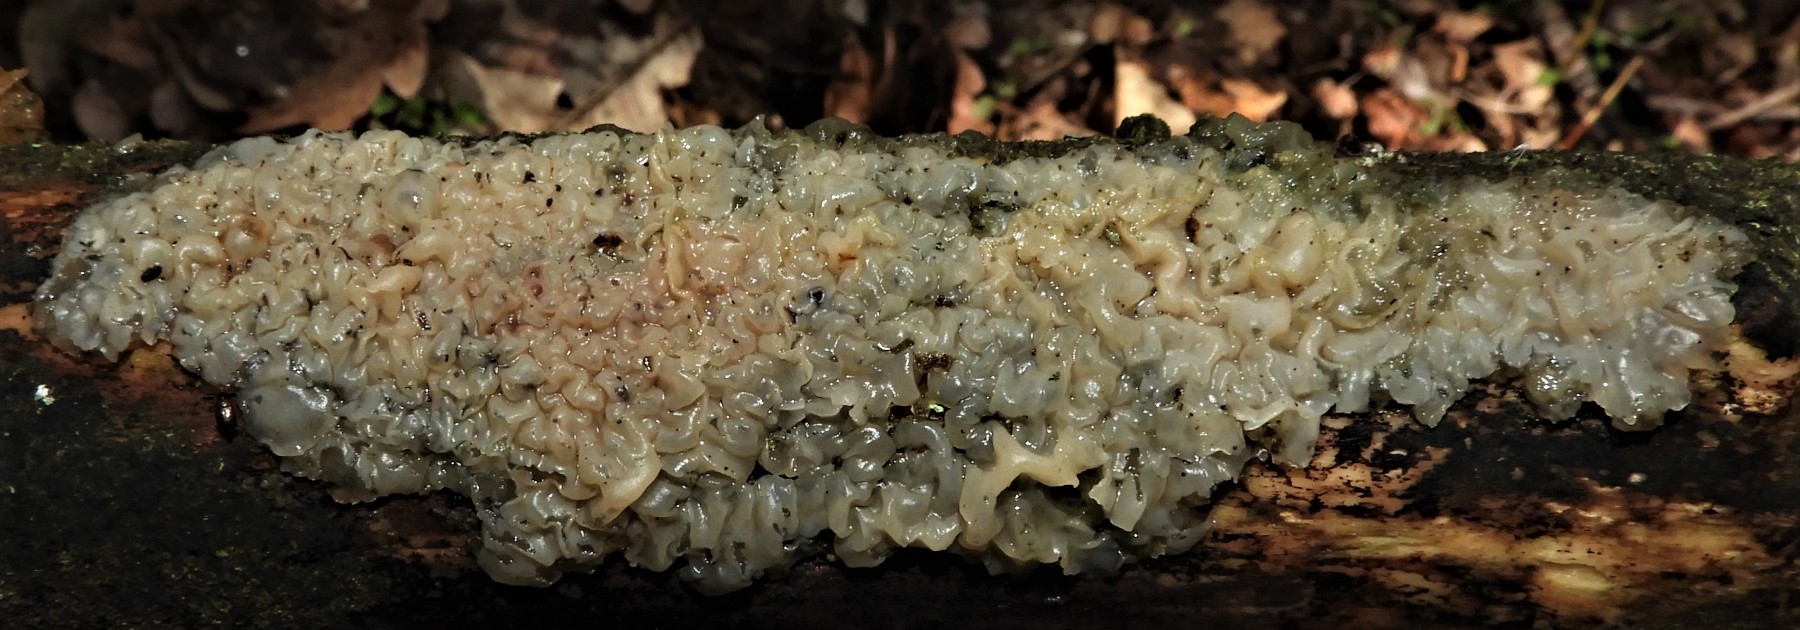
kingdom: Fungi
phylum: Basidiomycota
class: Agaricomycetes
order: Auriculariales
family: Auriculariaceae
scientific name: Auriculariaceae
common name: judasørefamilien
